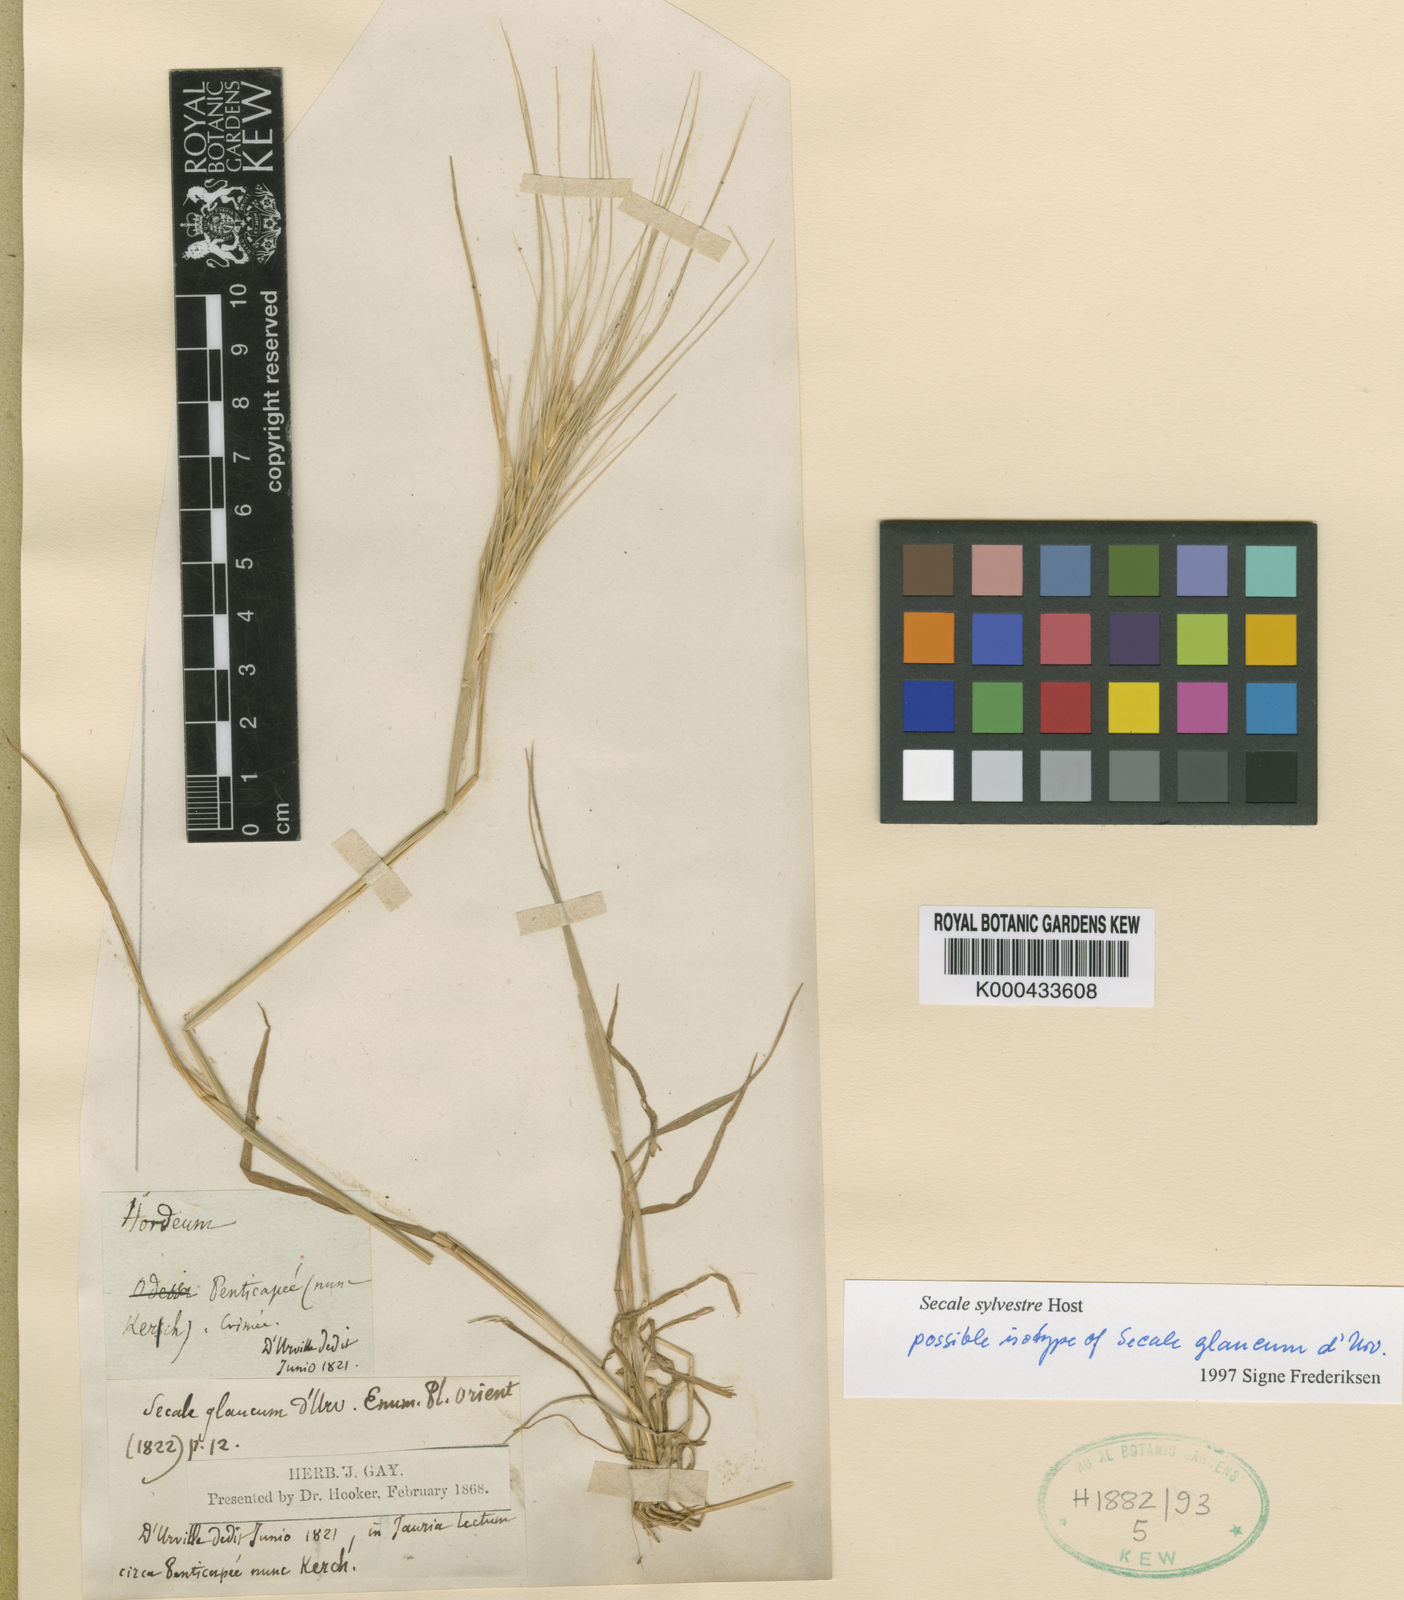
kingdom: Plantae
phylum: Tracheophyta
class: Liliopsida
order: Poales
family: Poaceae
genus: Secale
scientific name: Secale sylvestre
